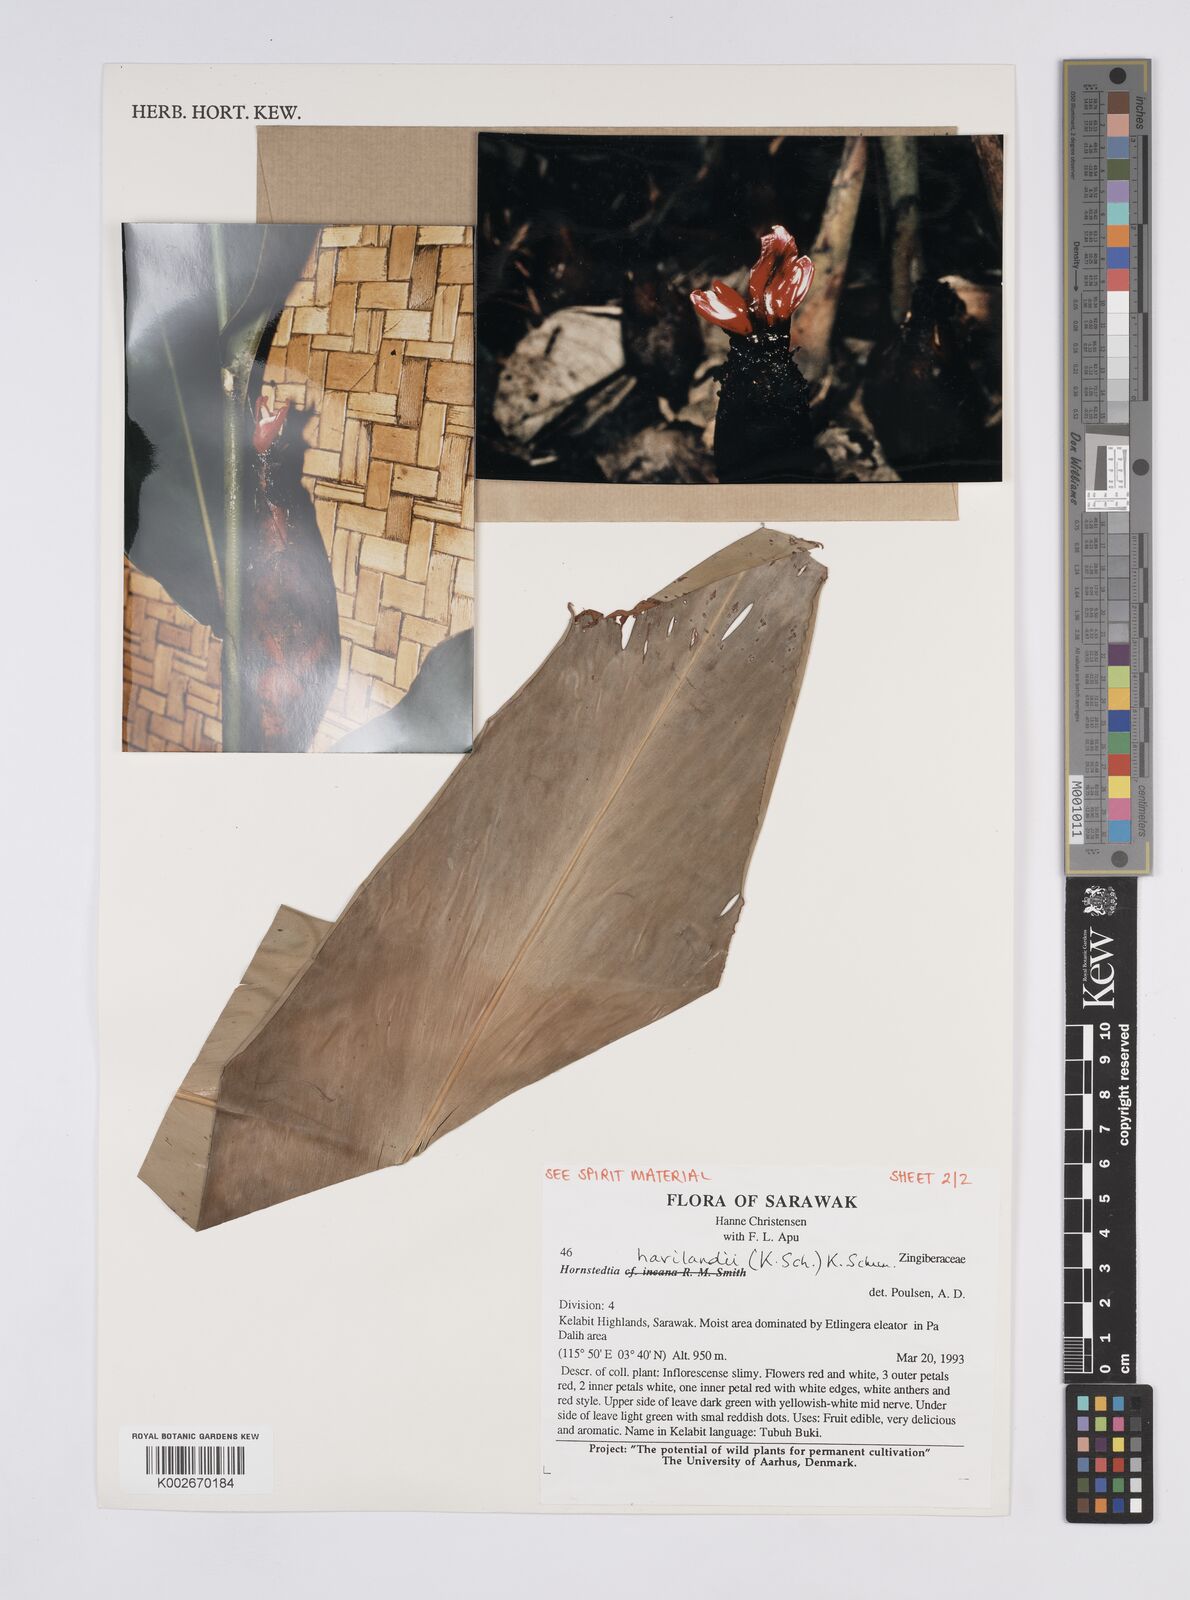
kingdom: Plantae
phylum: Tracheophyta
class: Liliopsida
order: Zingiberales
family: Zingiberaceae
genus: Hornstedtia
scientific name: Hornstedtia havilandii
